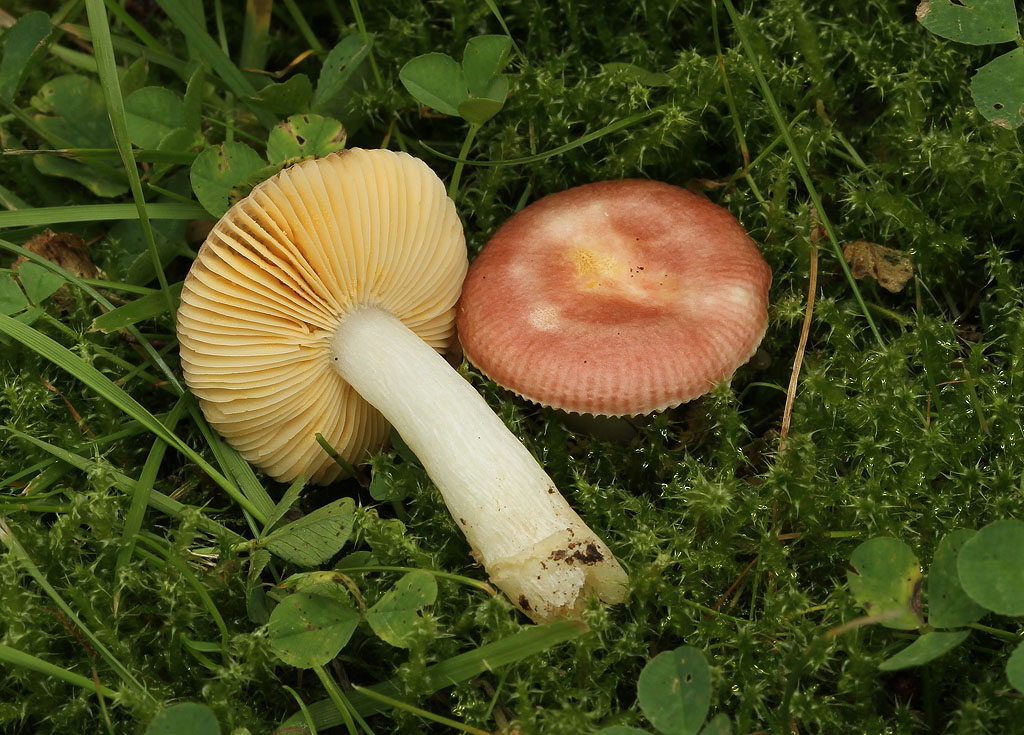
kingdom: Fungi
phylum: Basidiomycota
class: Agaricomycetes
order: Russulales
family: Russulaceae
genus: Russula
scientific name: Russula odorata
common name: duft-skørhat
